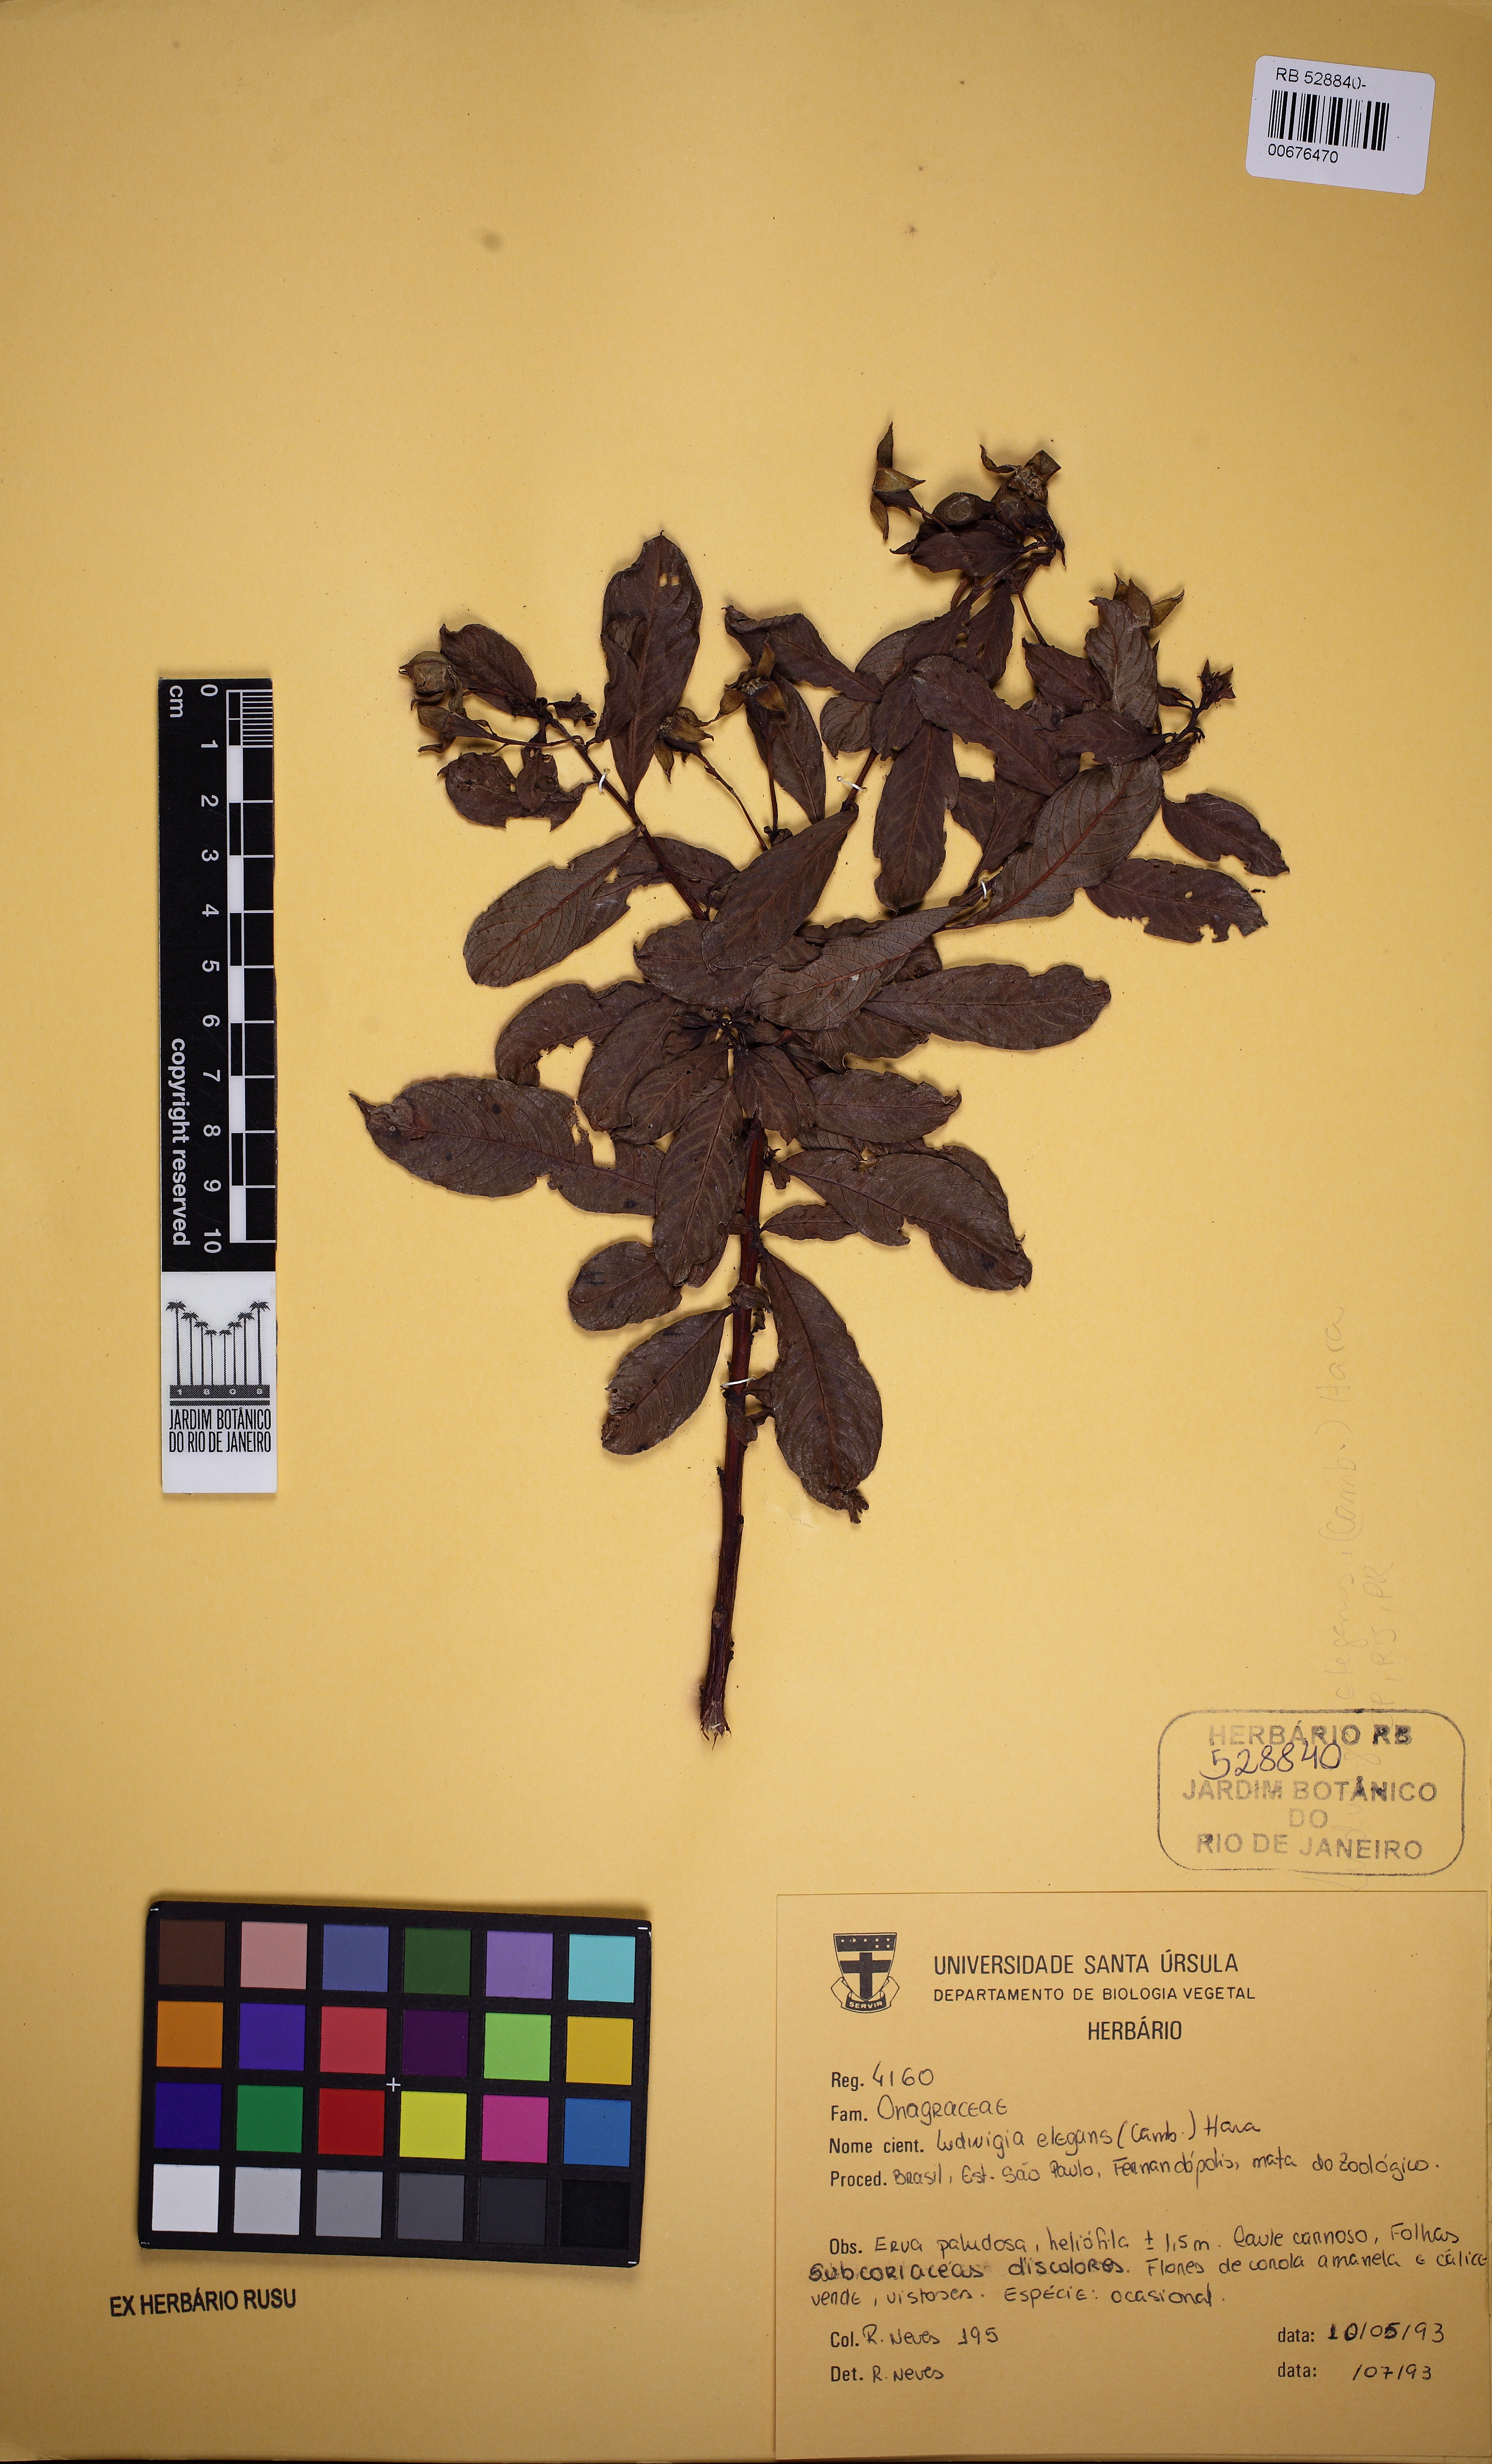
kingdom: Plantae
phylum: Tracheophyta
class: Magnoliopsida
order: Myrtales
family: Onagraceae
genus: Ludwigia
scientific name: Ludwigia elegans
